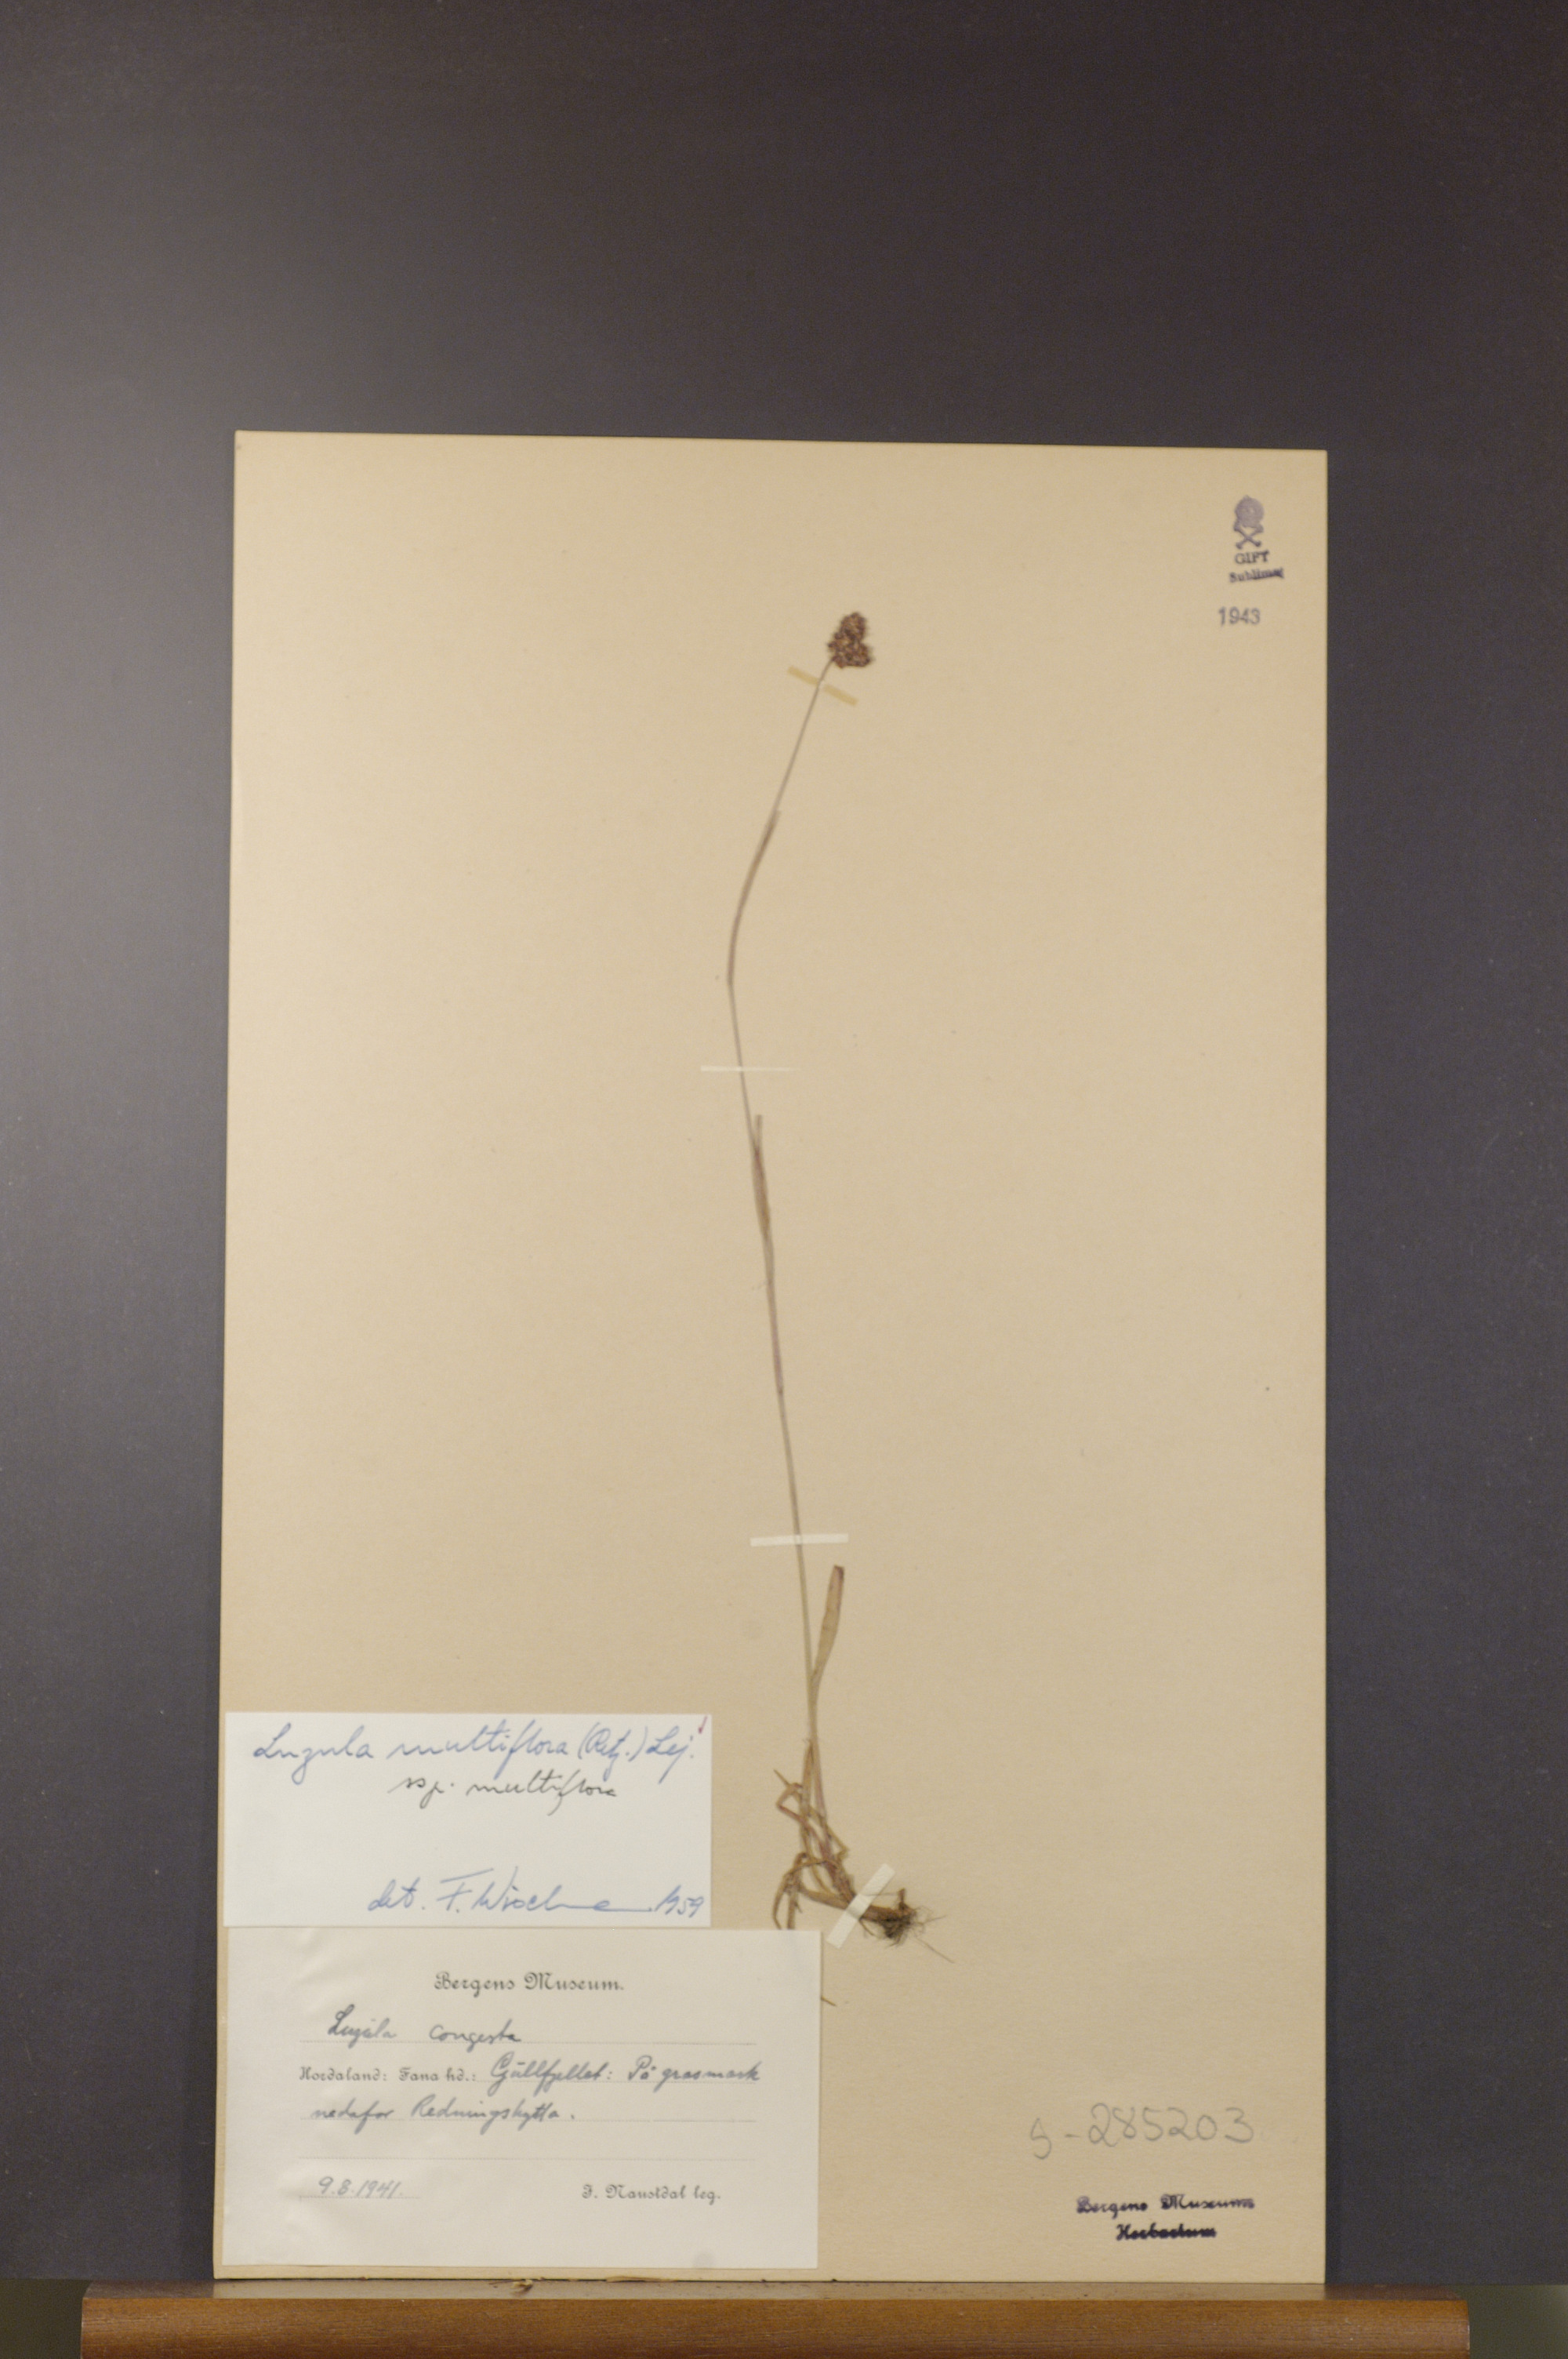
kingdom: Plantae
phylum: Tracheophyta
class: Liliopsida
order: Poales
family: Juncaceae
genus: Luzula
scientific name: Luzula multiflora
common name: Heath wood-rush
